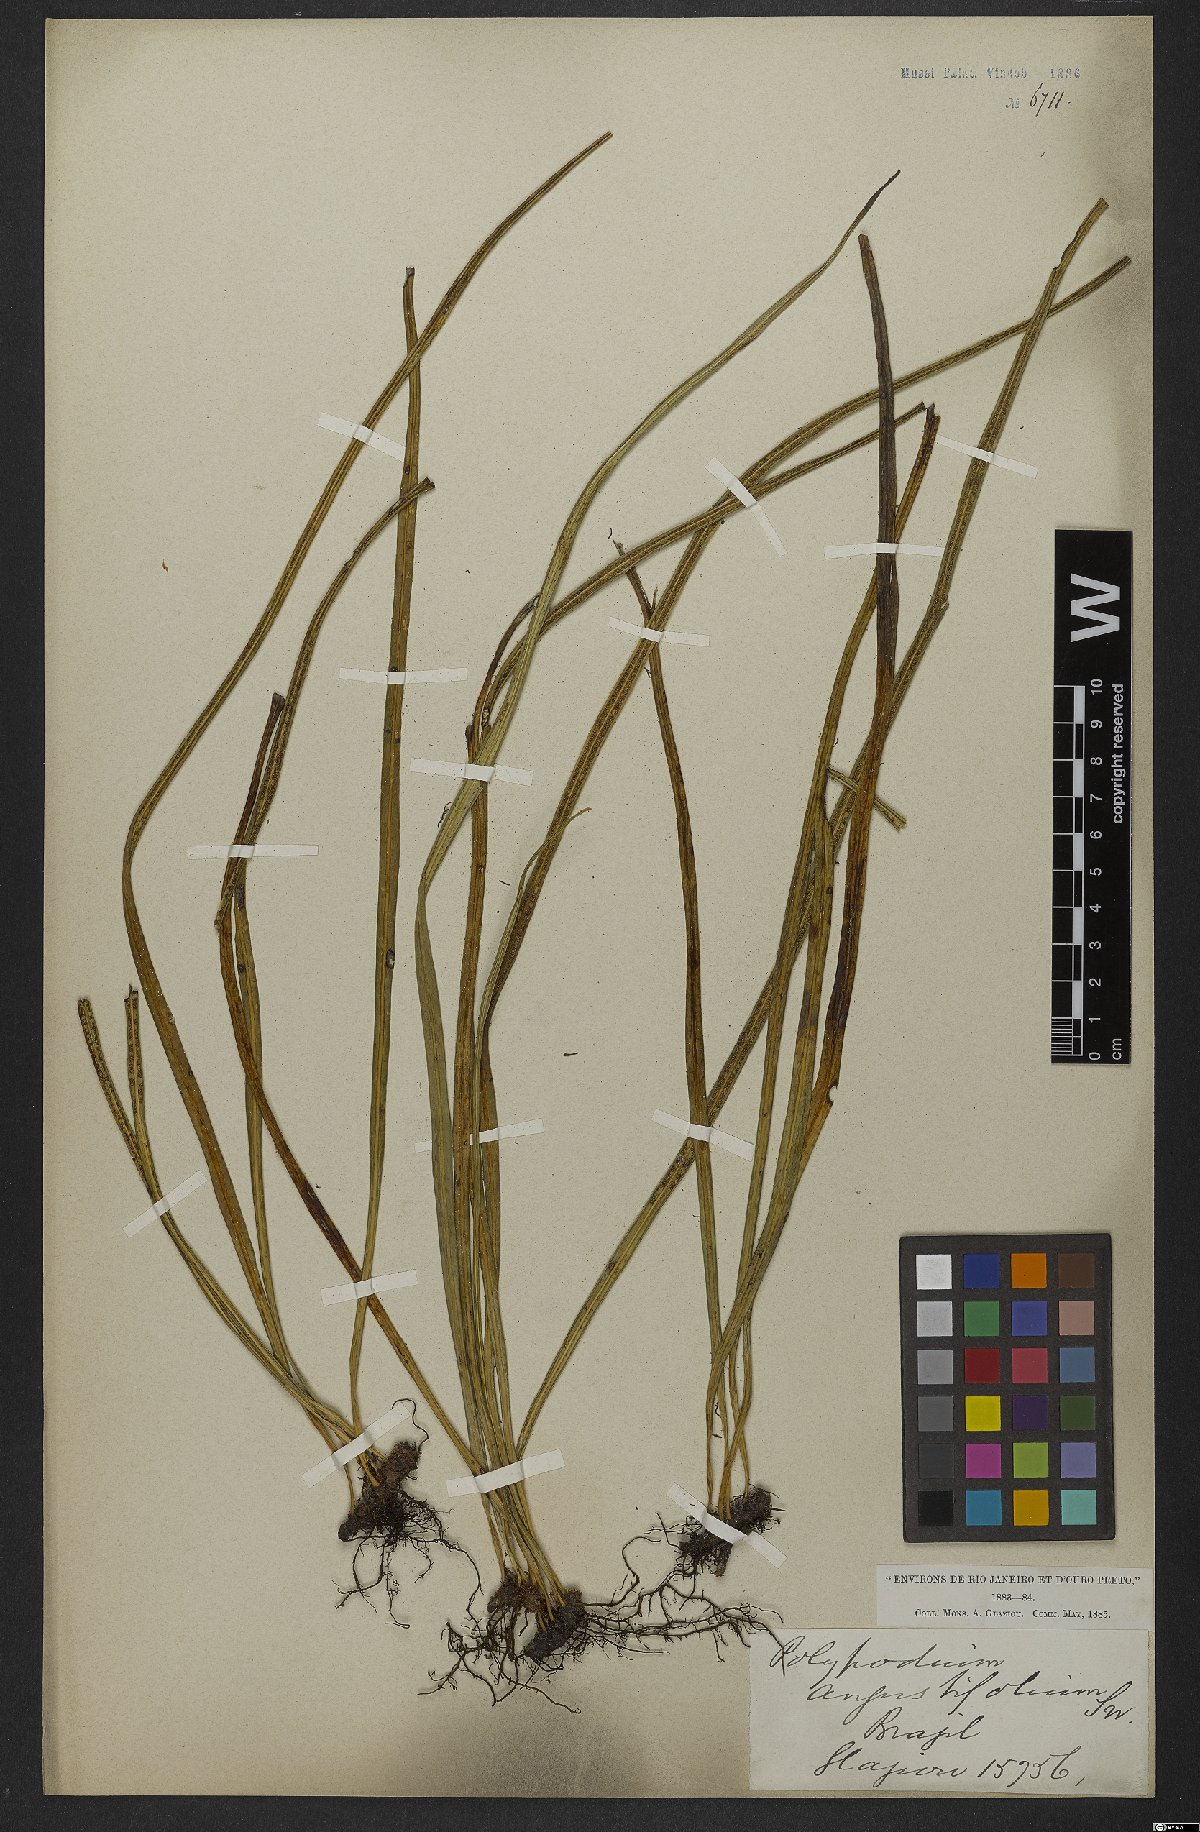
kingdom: Plantae
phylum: Tracheophyta
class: Polypodiopsida
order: Polypodiales
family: Polypodiaceae
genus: Campyloneurum
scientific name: Campyloneurum angustifolium
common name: Narrow-leaf strap fern
